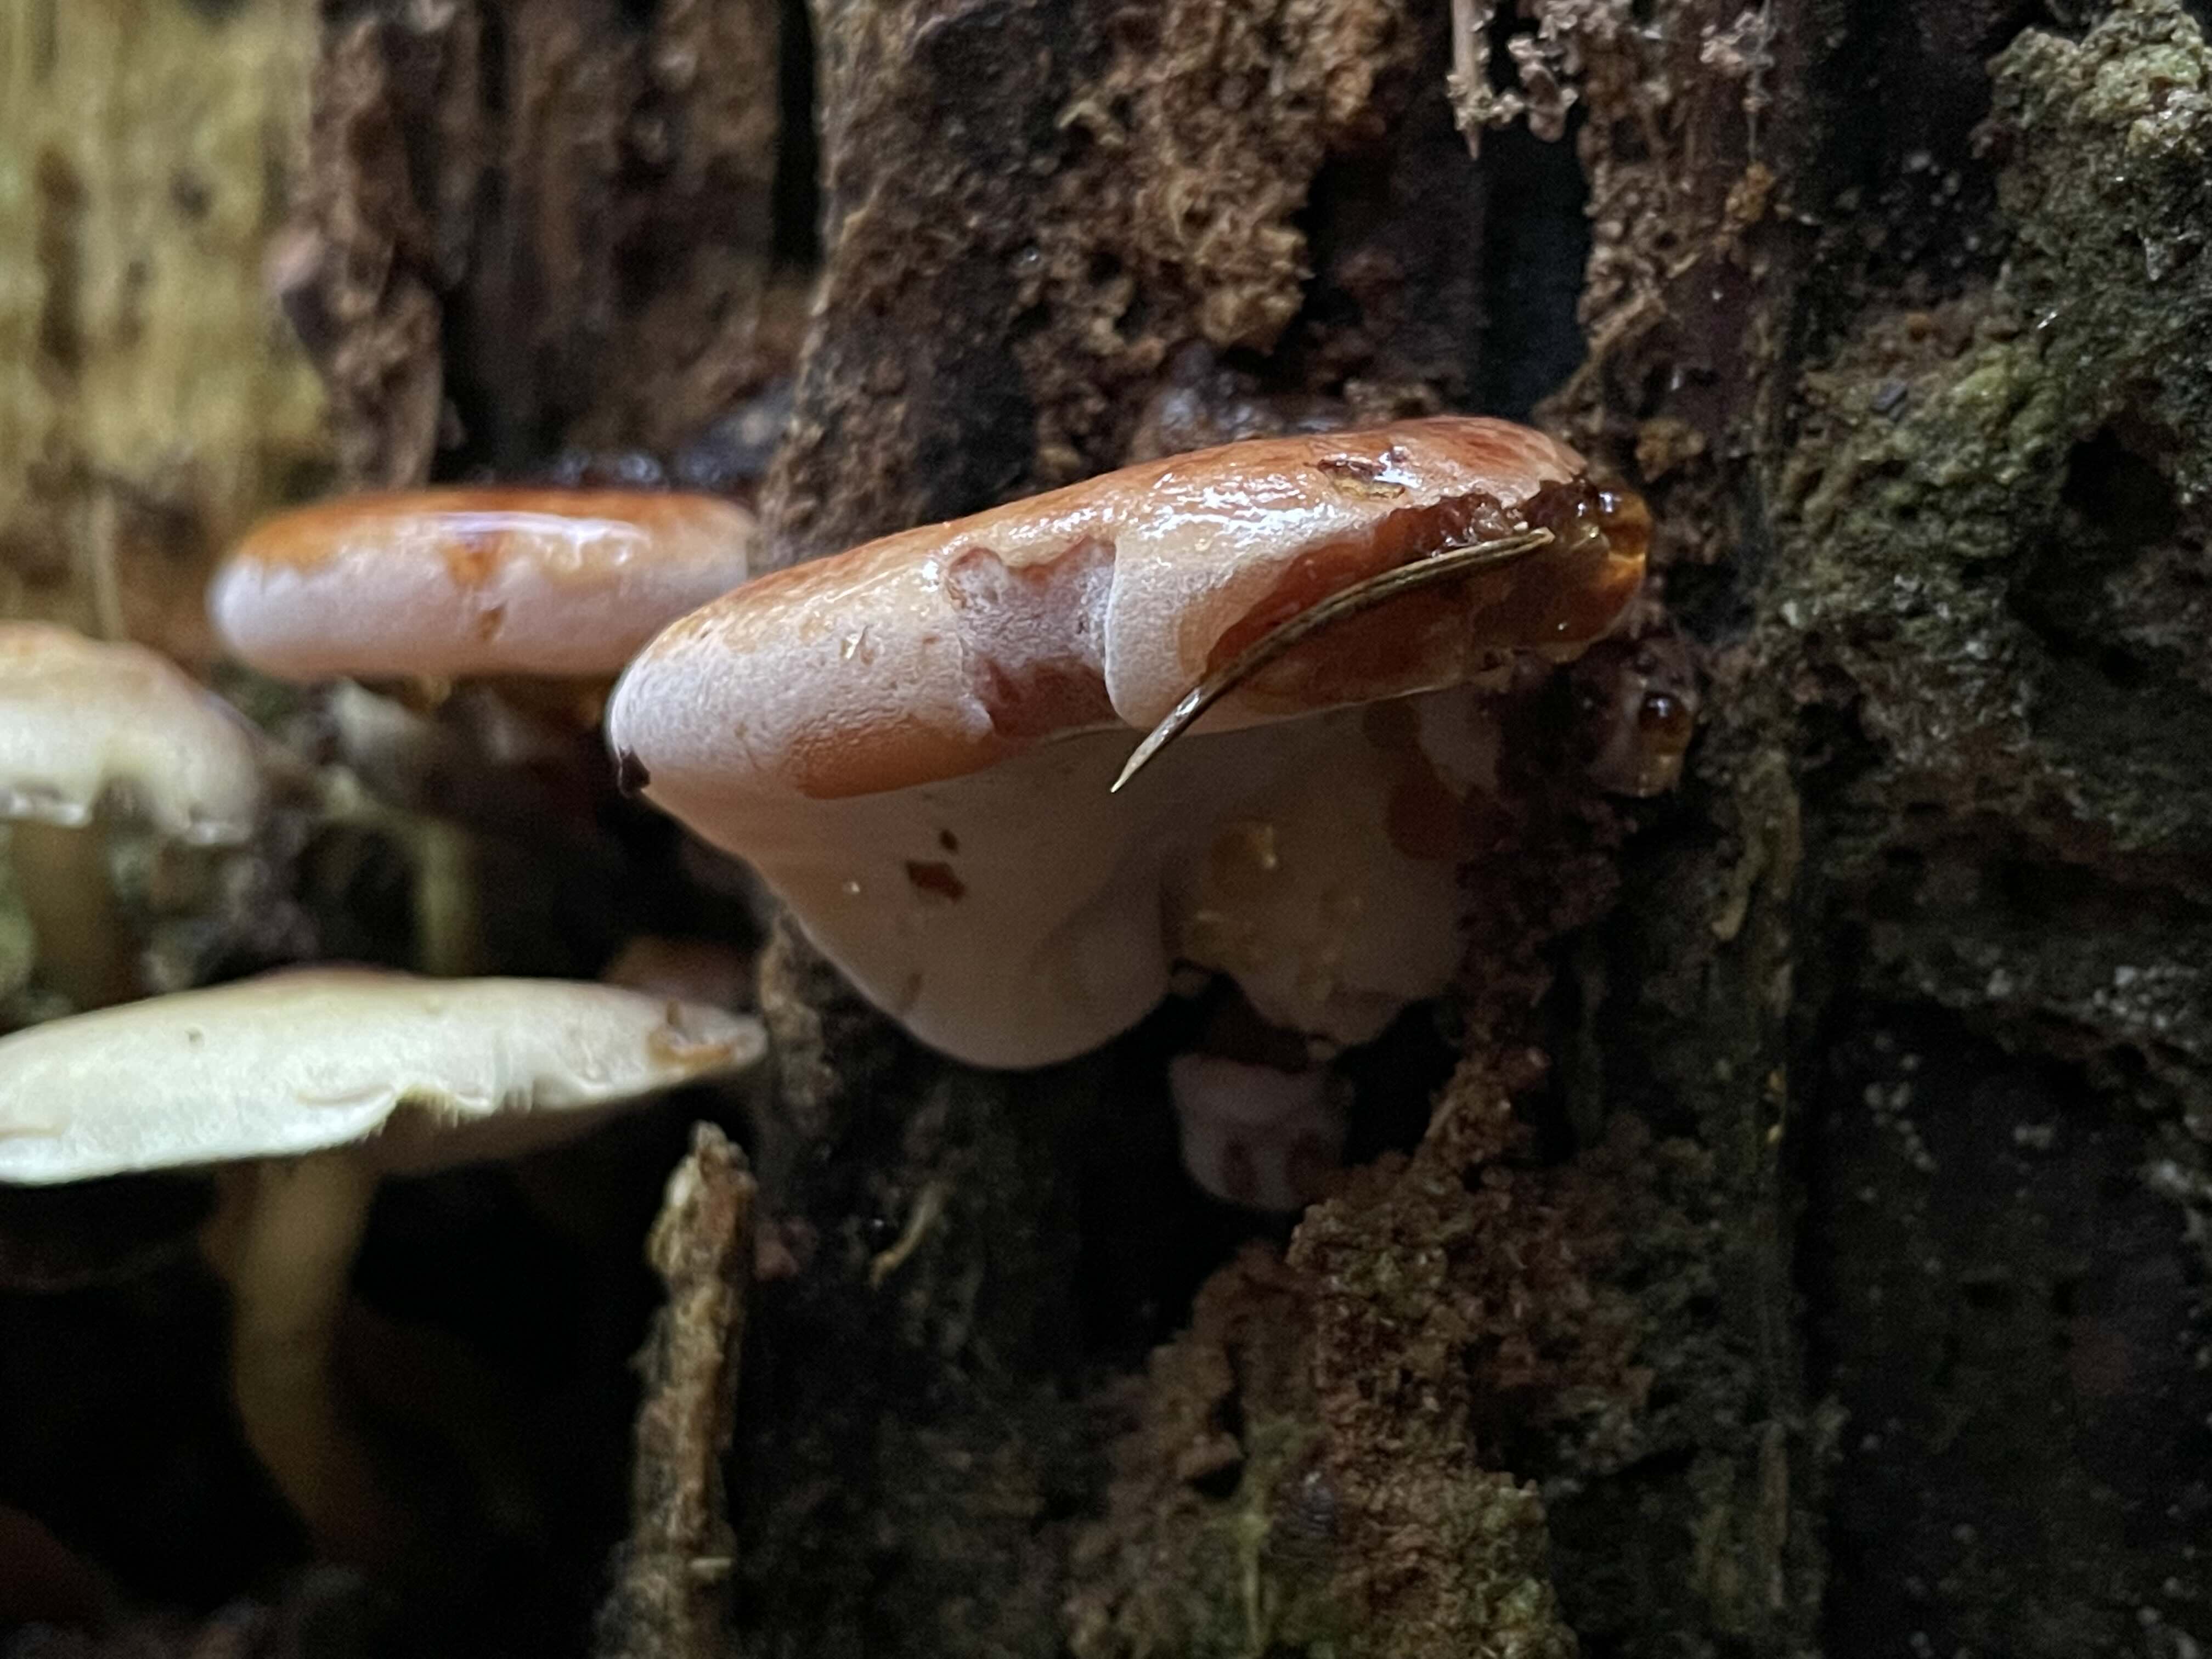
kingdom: Fungi
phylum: Basidiomycota
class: Agaricomycetes
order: Polyporales
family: Ischnodermataceae
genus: Ischnoderma
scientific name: Ischnoderma benzoinum
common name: gran-tjæreporesvamp
